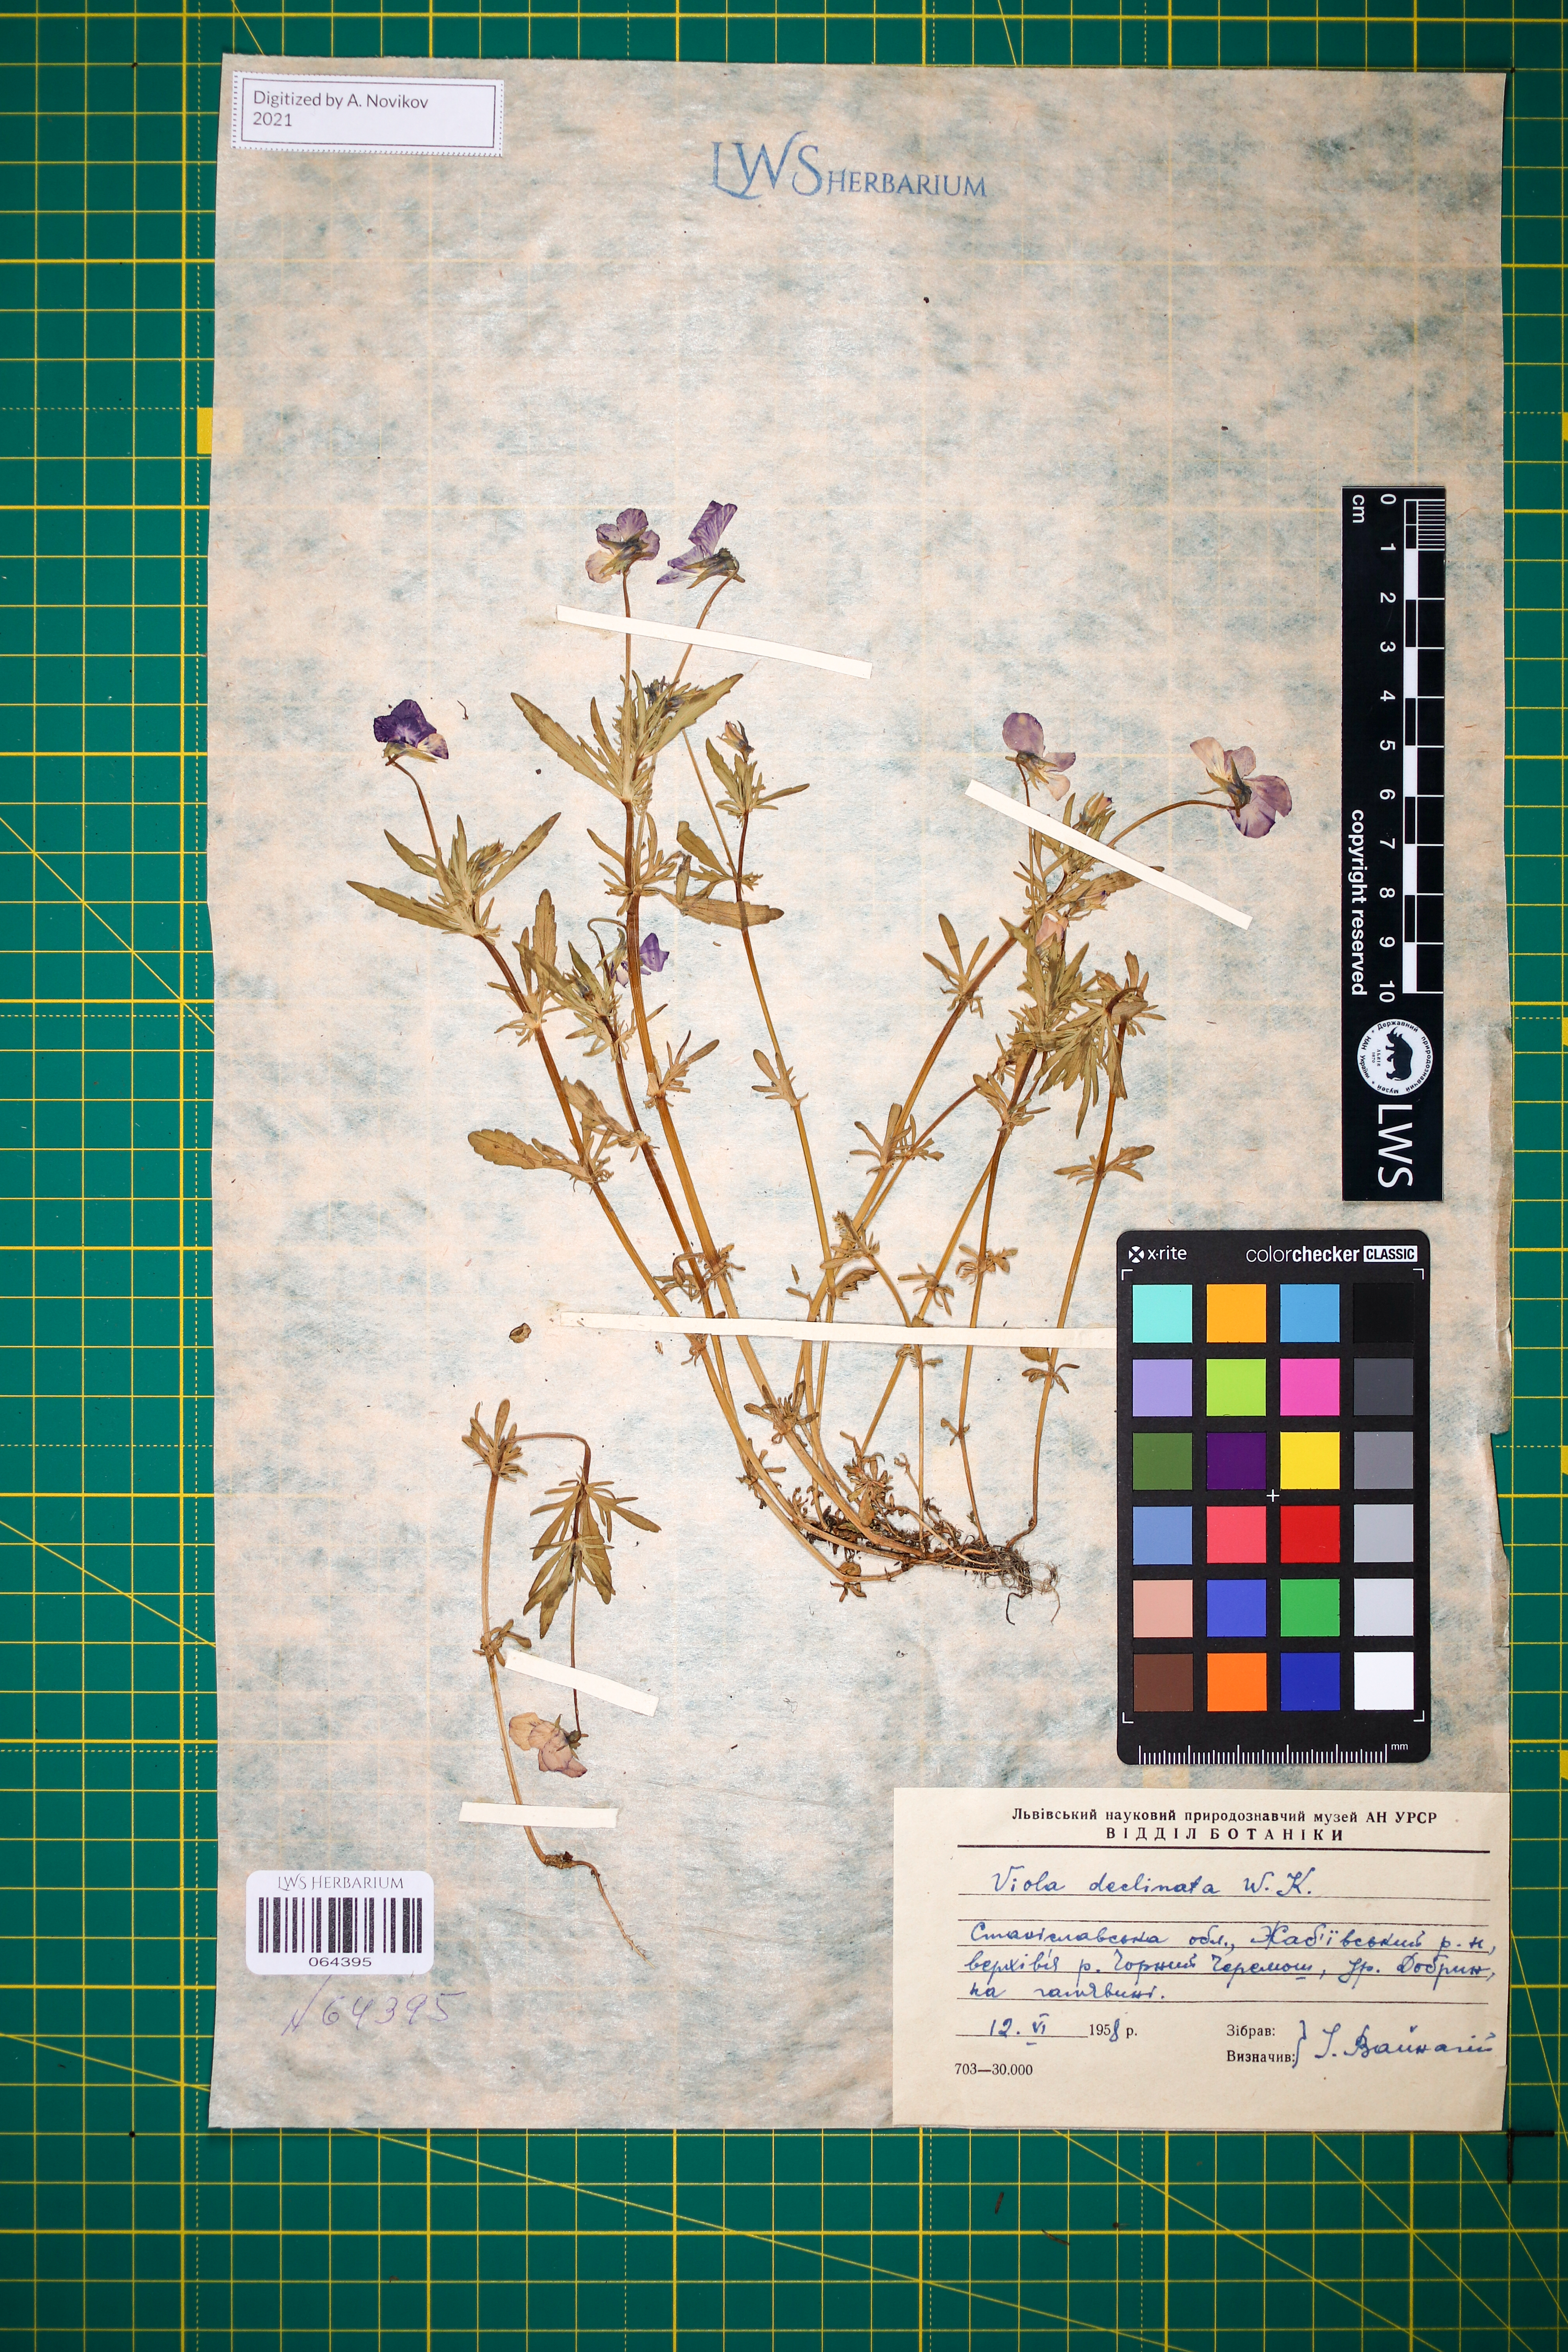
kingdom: Plantae
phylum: Tracheophyta
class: Magnoliopsida
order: Malpighiales
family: Violaceae
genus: Viola
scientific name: Viola declinata
